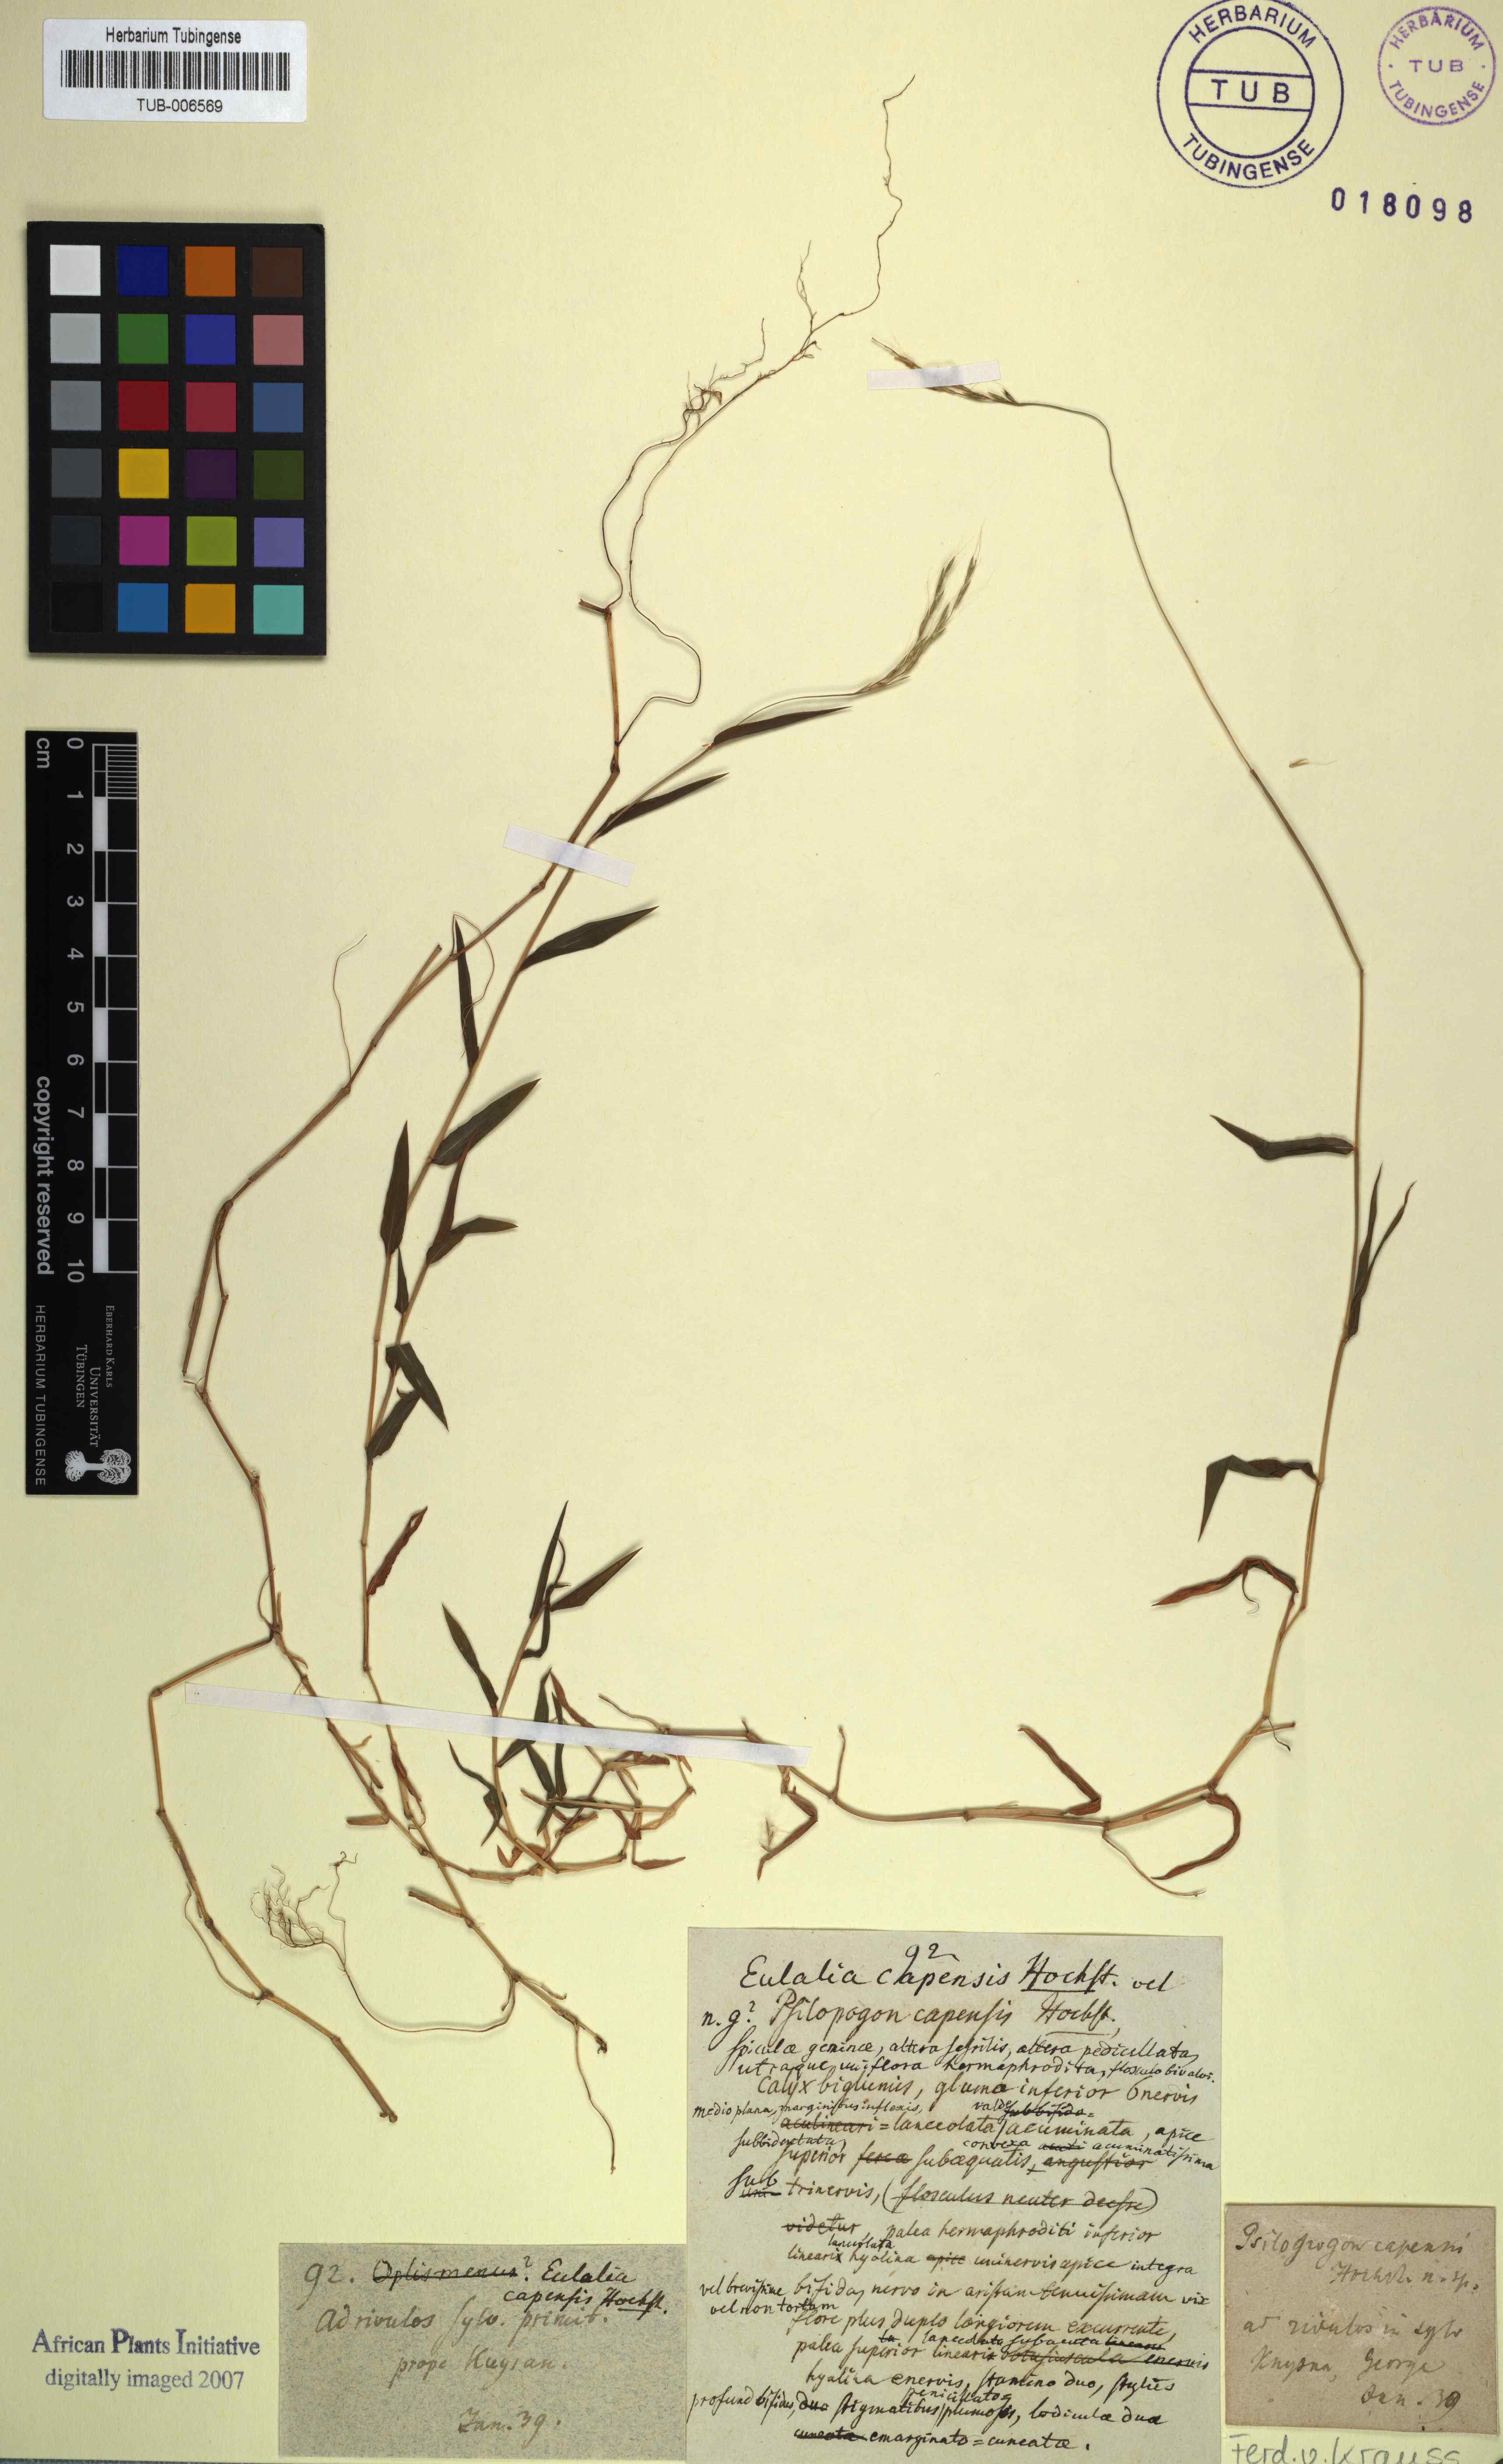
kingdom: Plantae
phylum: Tracheophyta
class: Liliopsida
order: Poales
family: Poaceae
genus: Microstegium
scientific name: Microstegium nudum
